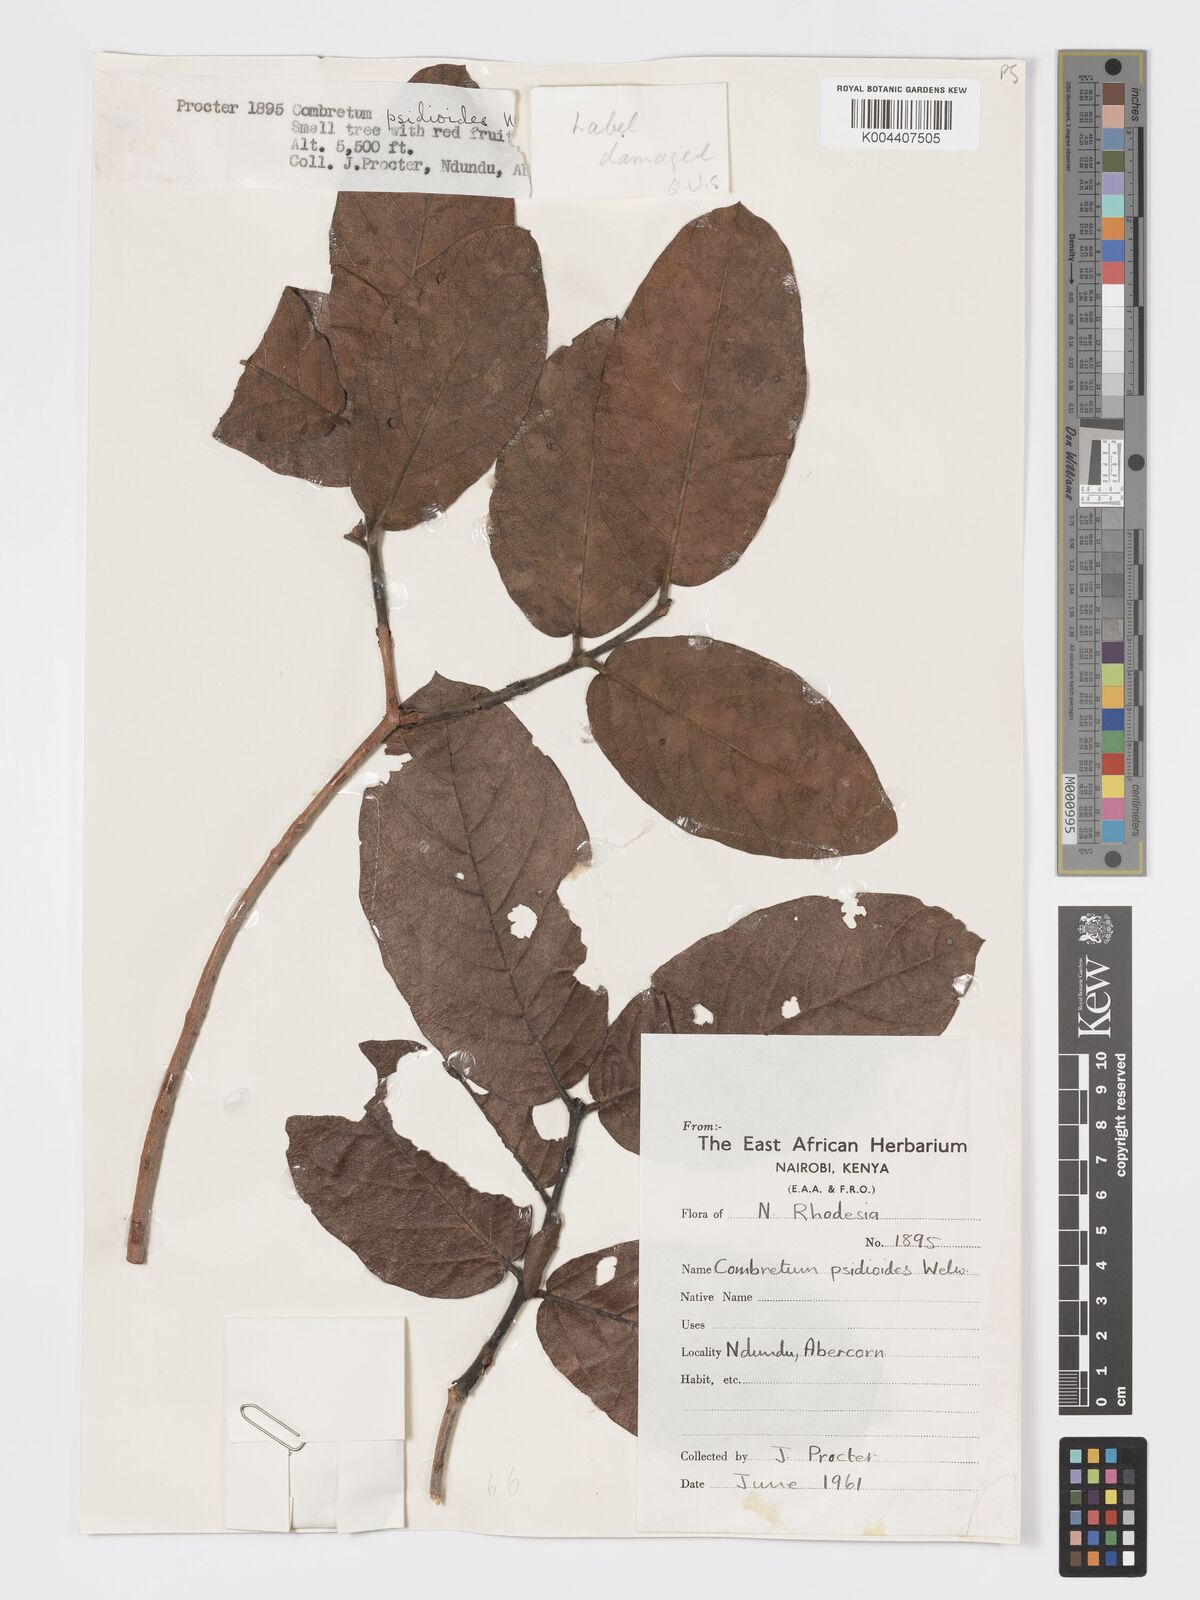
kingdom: Plantae
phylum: Tracheophyta
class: Magnoliopsida
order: Myrtales
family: Combretaceae
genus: Combretum
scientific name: Combretum psidioides
